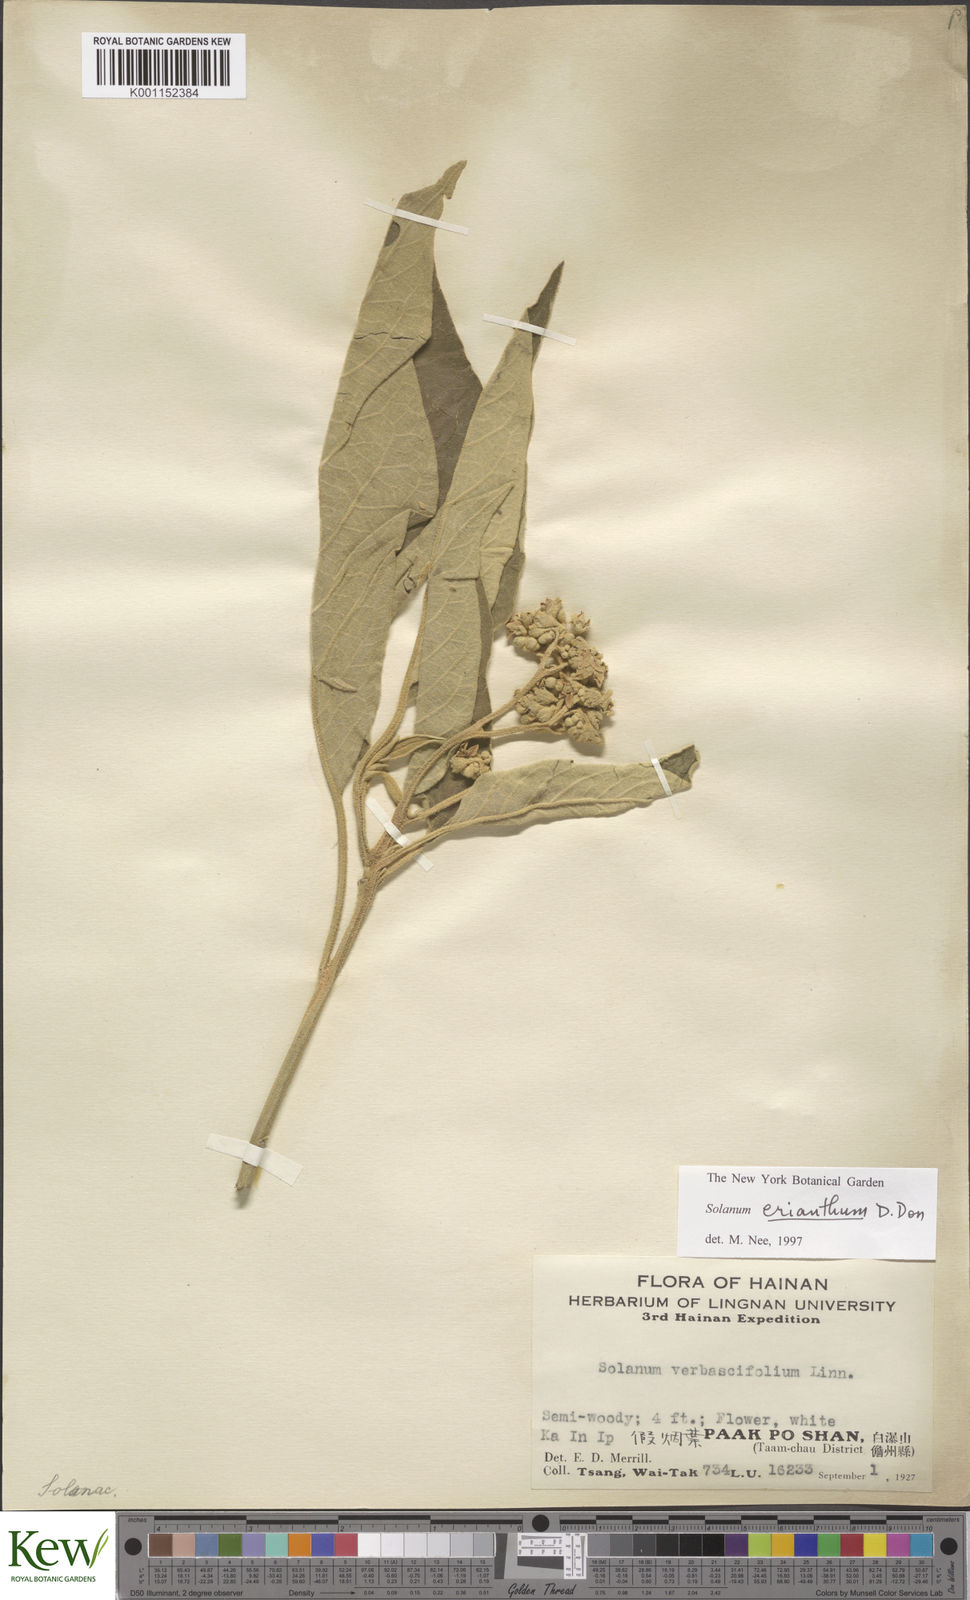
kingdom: Plantae
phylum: Tracheophyta
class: Magnoliopsida
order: Solanales
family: Solanaceae
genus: Solanum
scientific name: Solanum donianum
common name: Mullein nightshade
